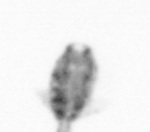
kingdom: Animalia
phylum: Arthropoda
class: Copepoda
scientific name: Copepoda
